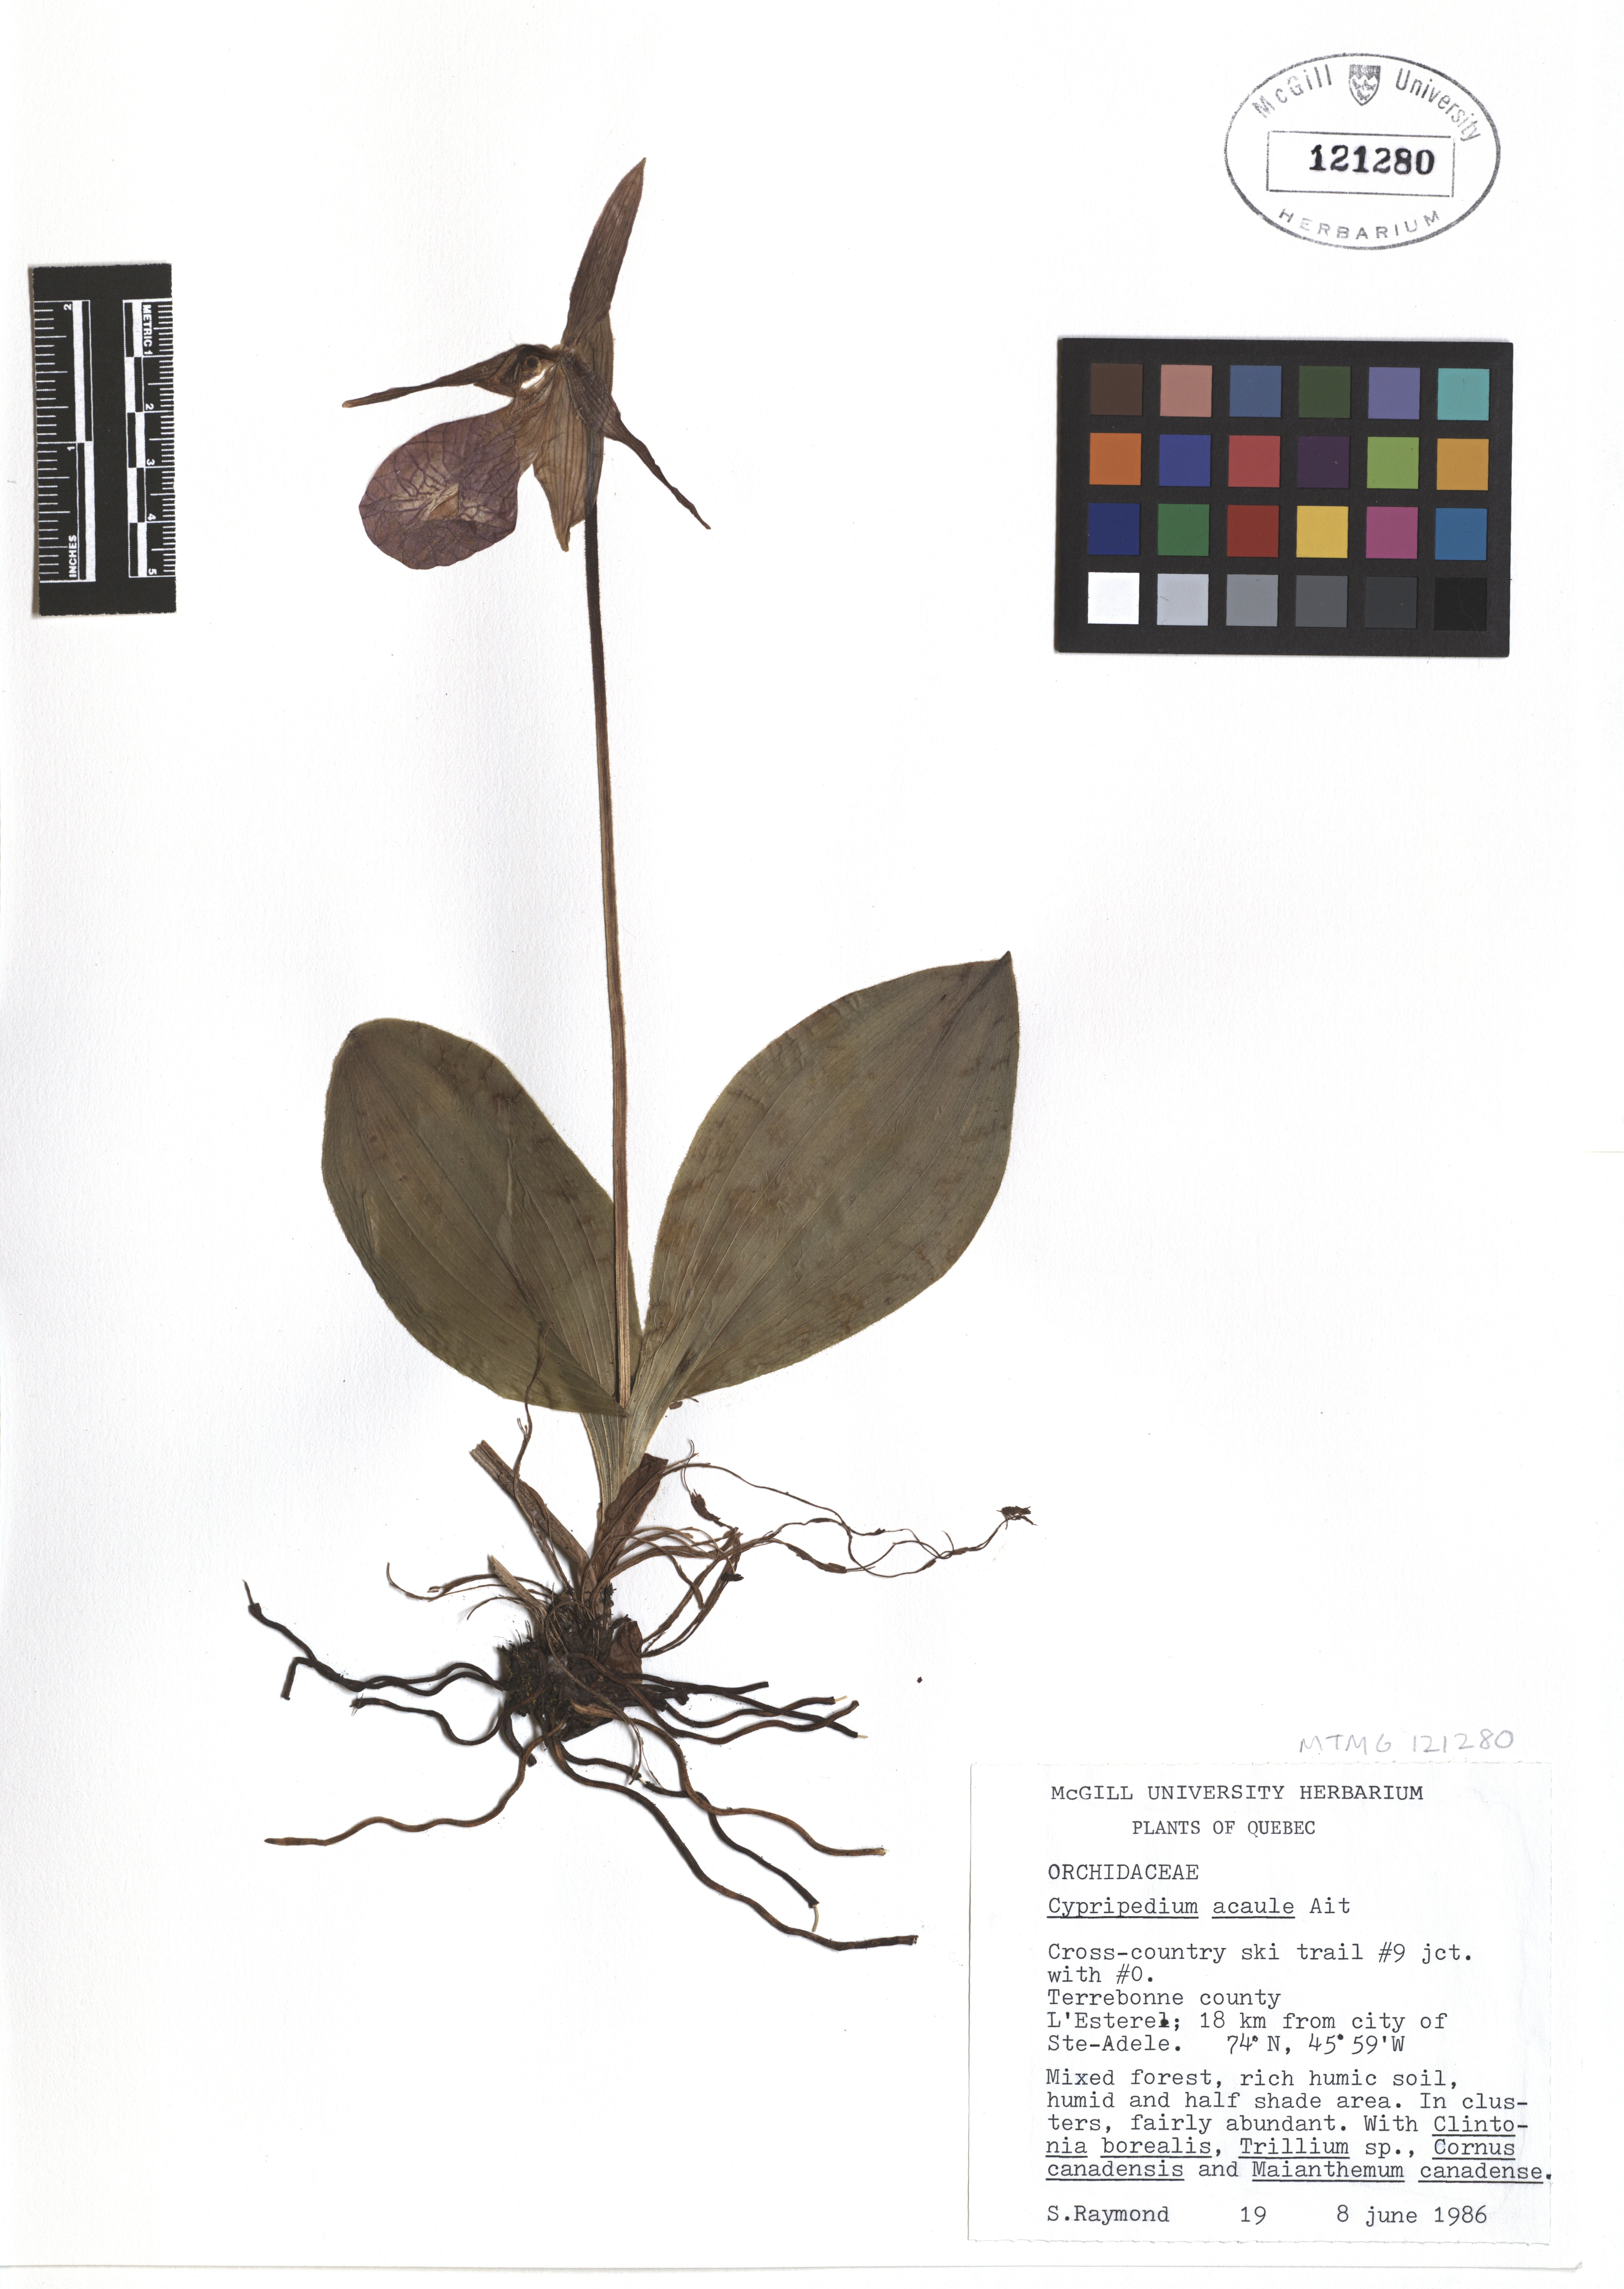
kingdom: Plantae
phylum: Tracheophyta
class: Liliopsida
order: Asparagales
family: Orchidaceae
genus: Cypripedium
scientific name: Cypripedium acaule
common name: Pink lady's-slipper
